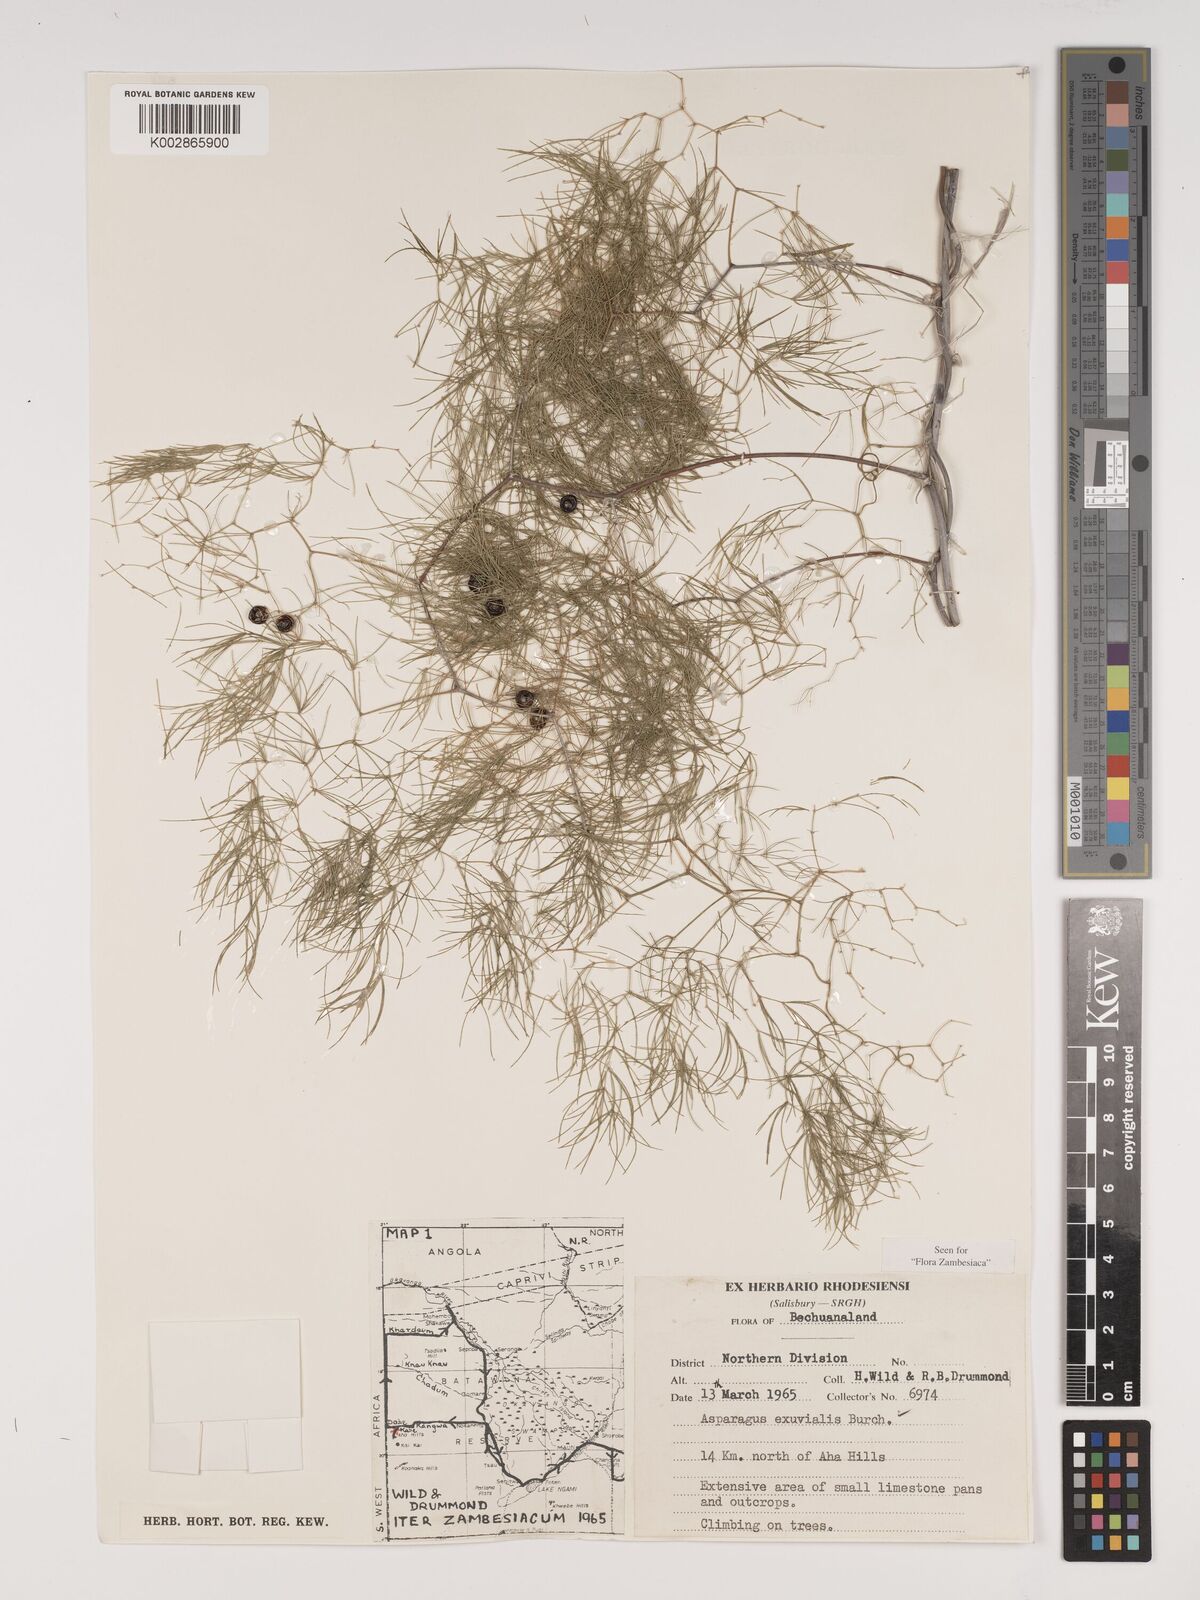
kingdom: Plantae
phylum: Tracheophyta
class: Liliopsida
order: Asparagales
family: Asparagaceae
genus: Asparagus
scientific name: Asparagus exuvialis
